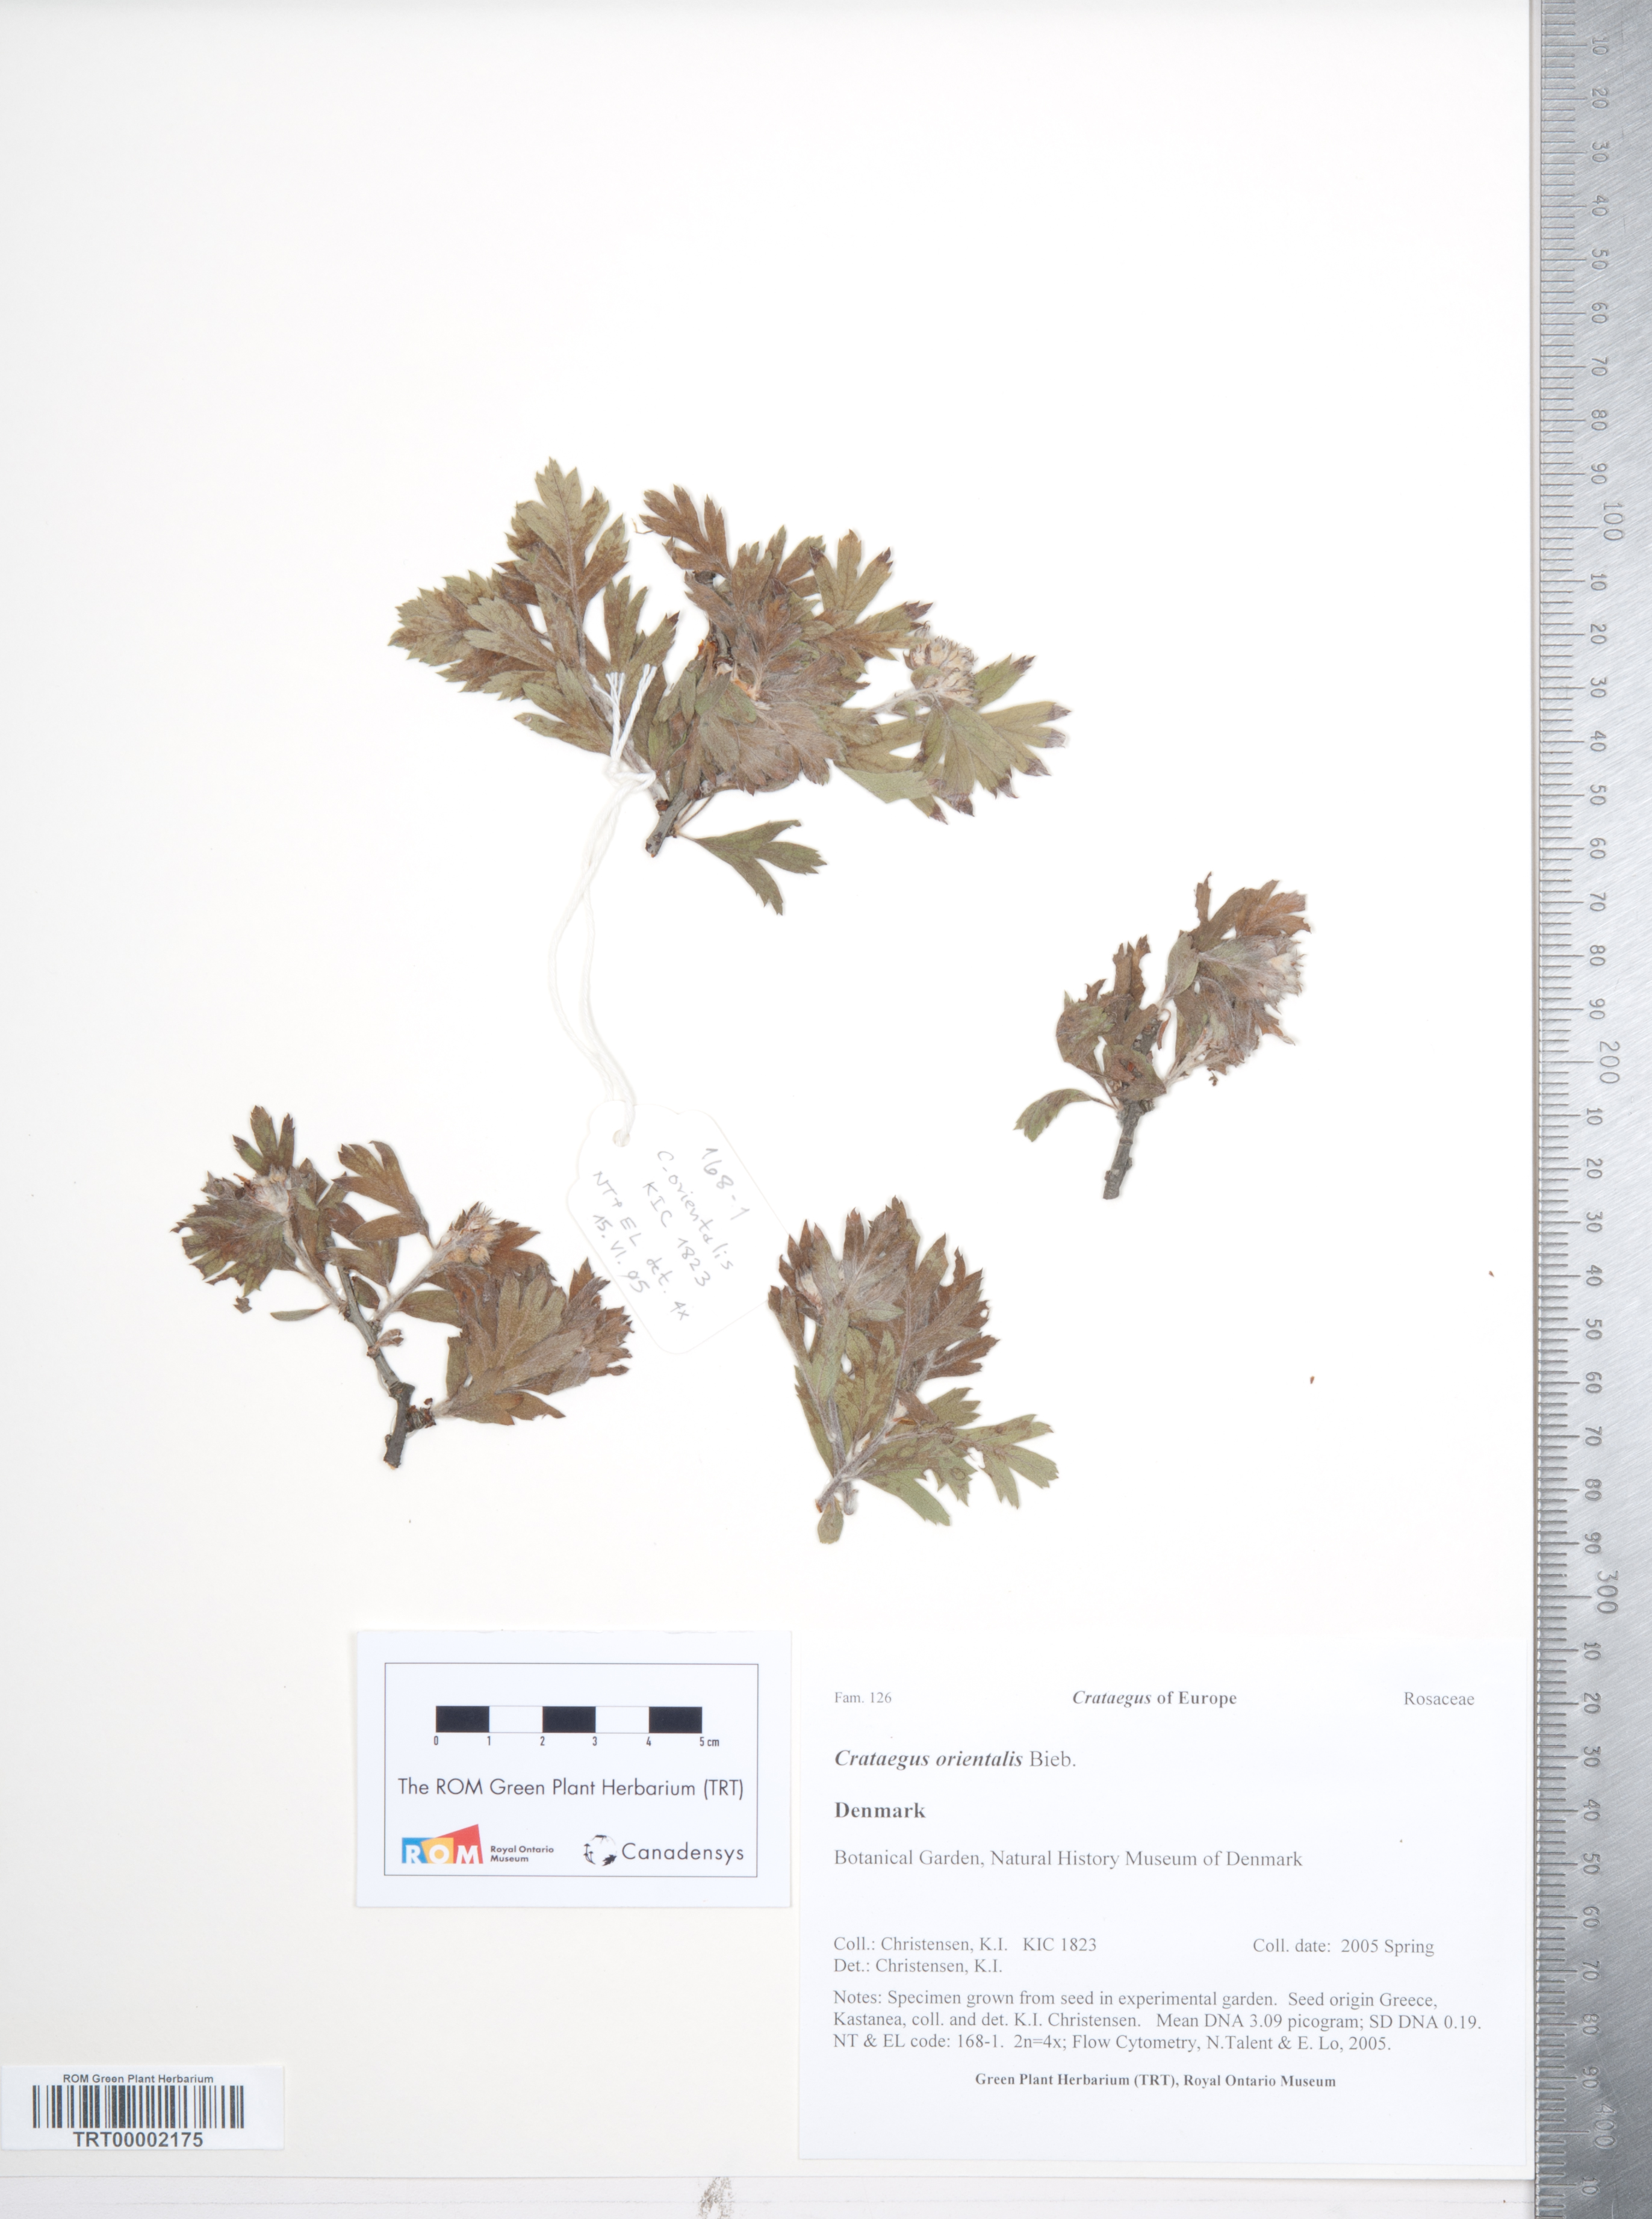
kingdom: Plantae
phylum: Tracheophyta
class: Magnoliopsida
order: Rosales
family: Rosaceae
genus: Crataegus
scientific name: Crataegus orientalis
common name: Oriental hawthorn
